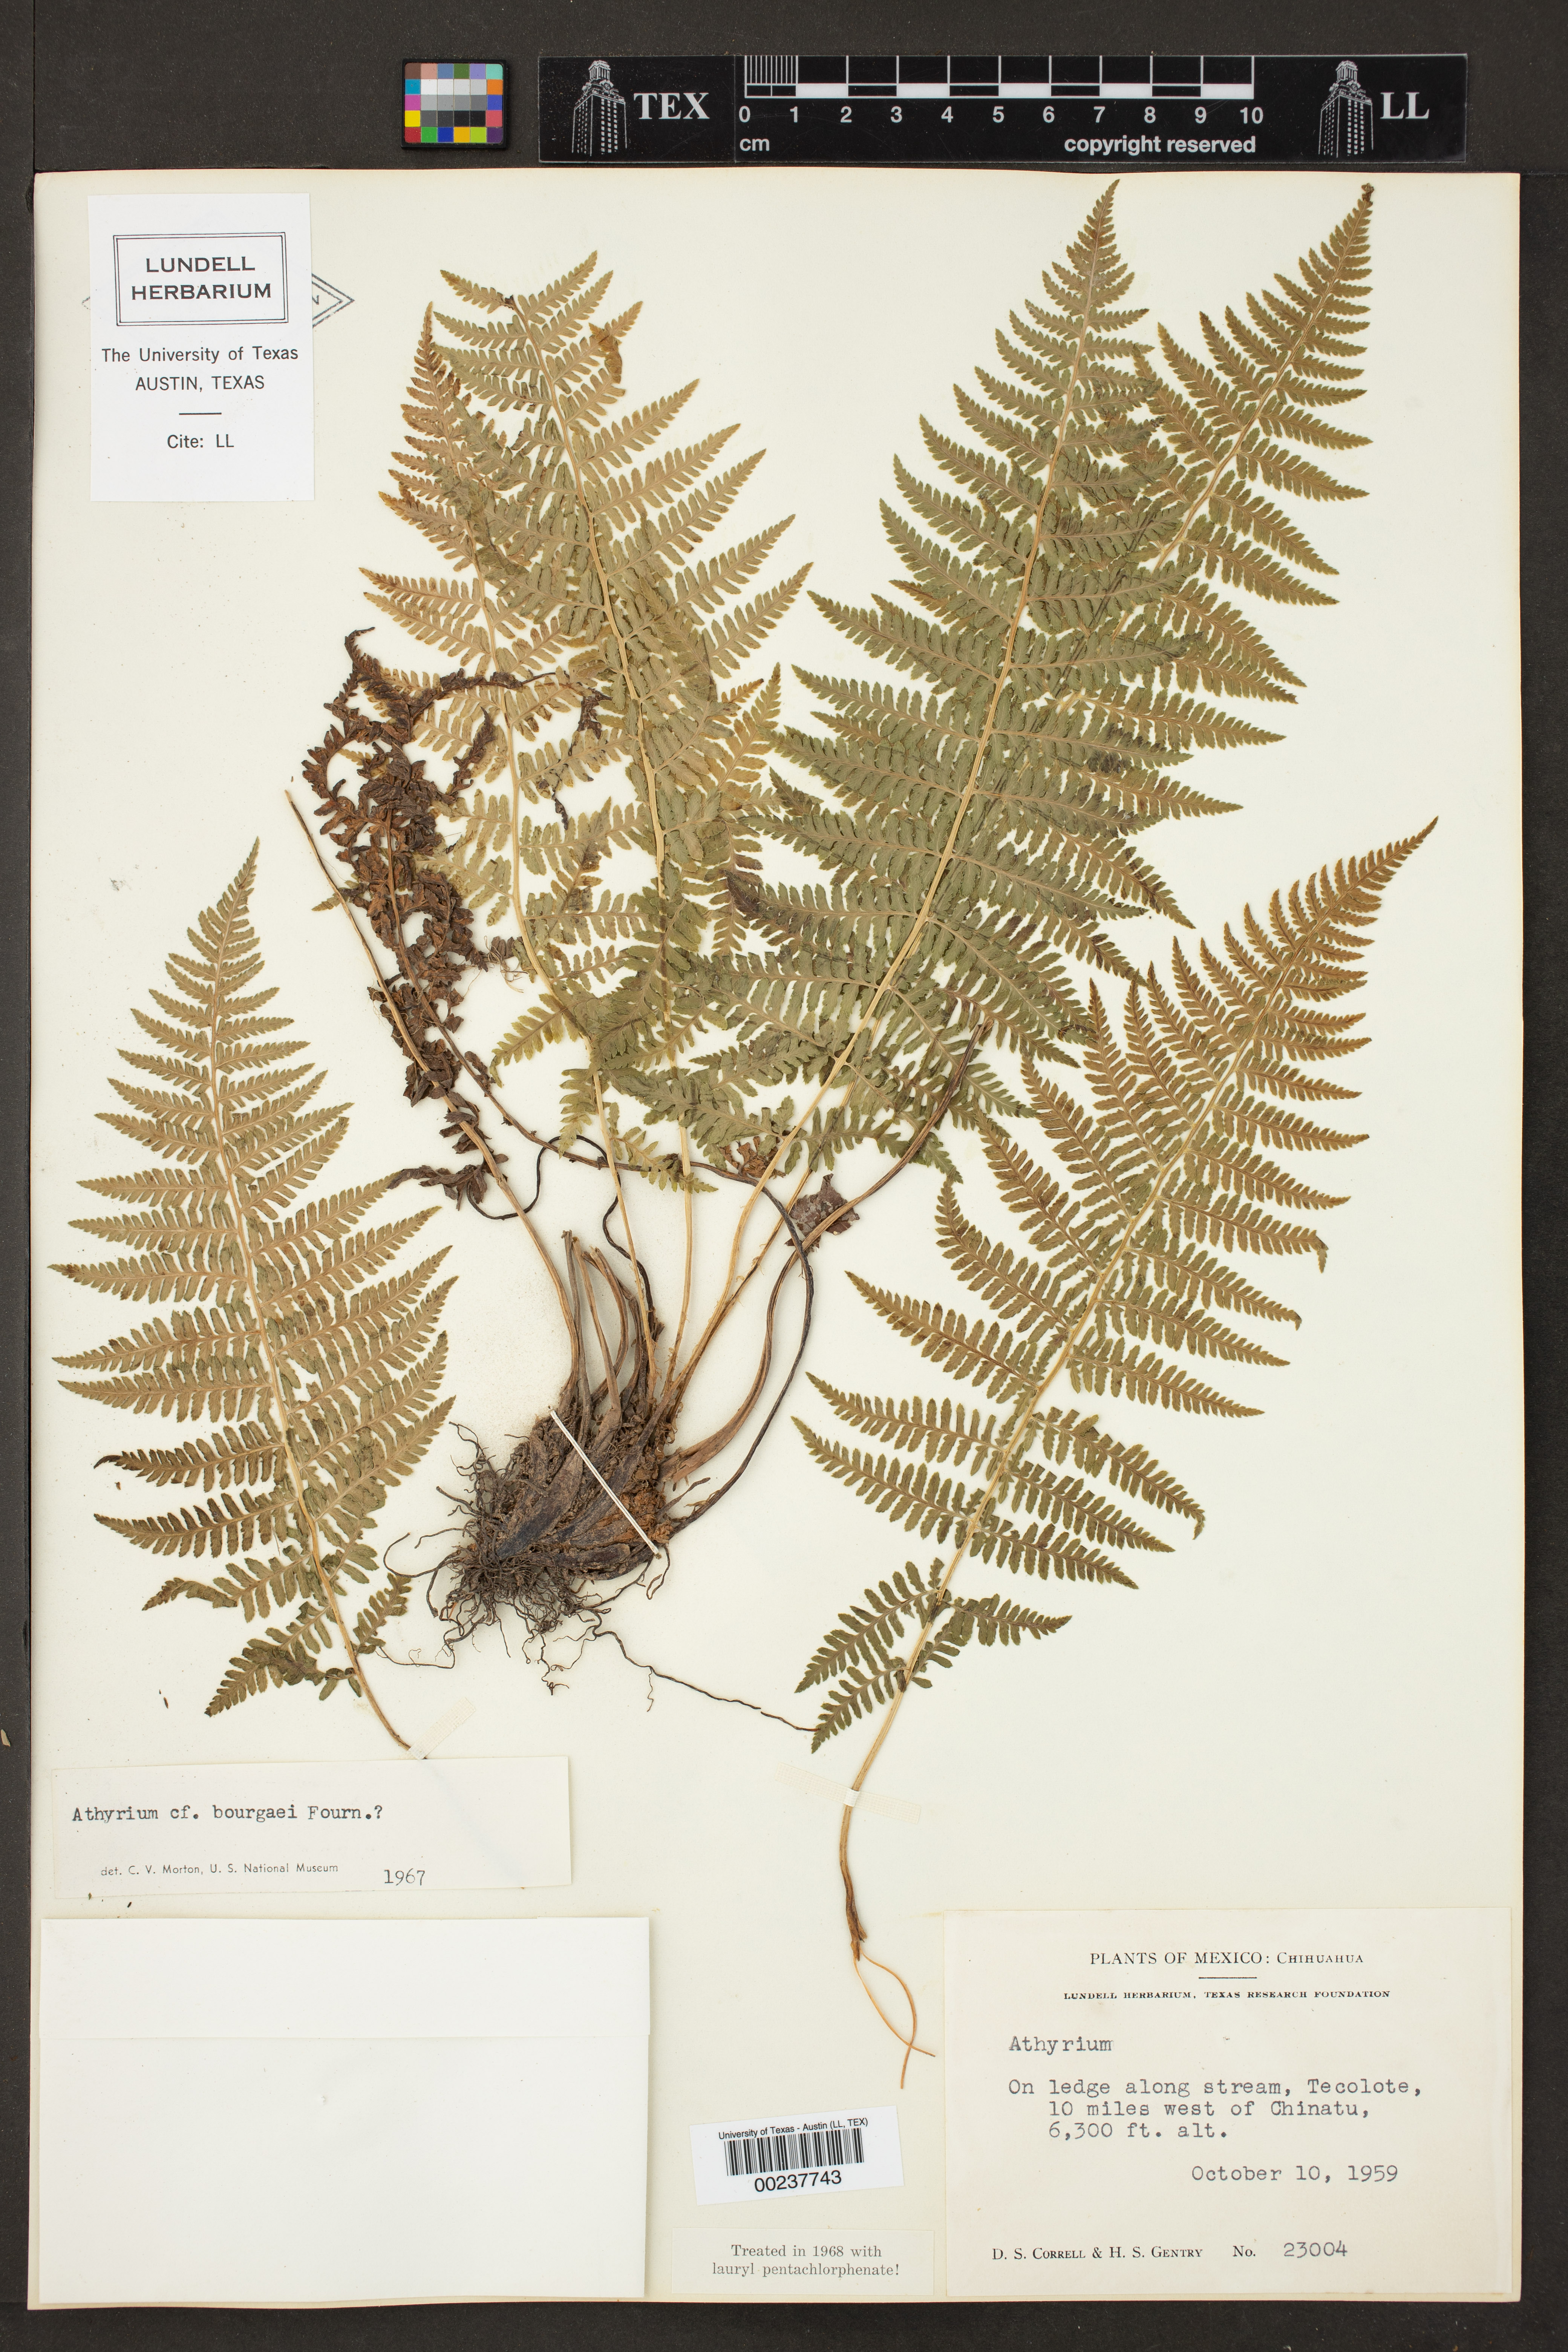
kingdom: Plantae
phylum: Tracheophyta
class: Polypodiopsida
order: Polypodiales
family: Athyriaceae
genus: Athyrium
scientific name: Athyrium bourgaei
